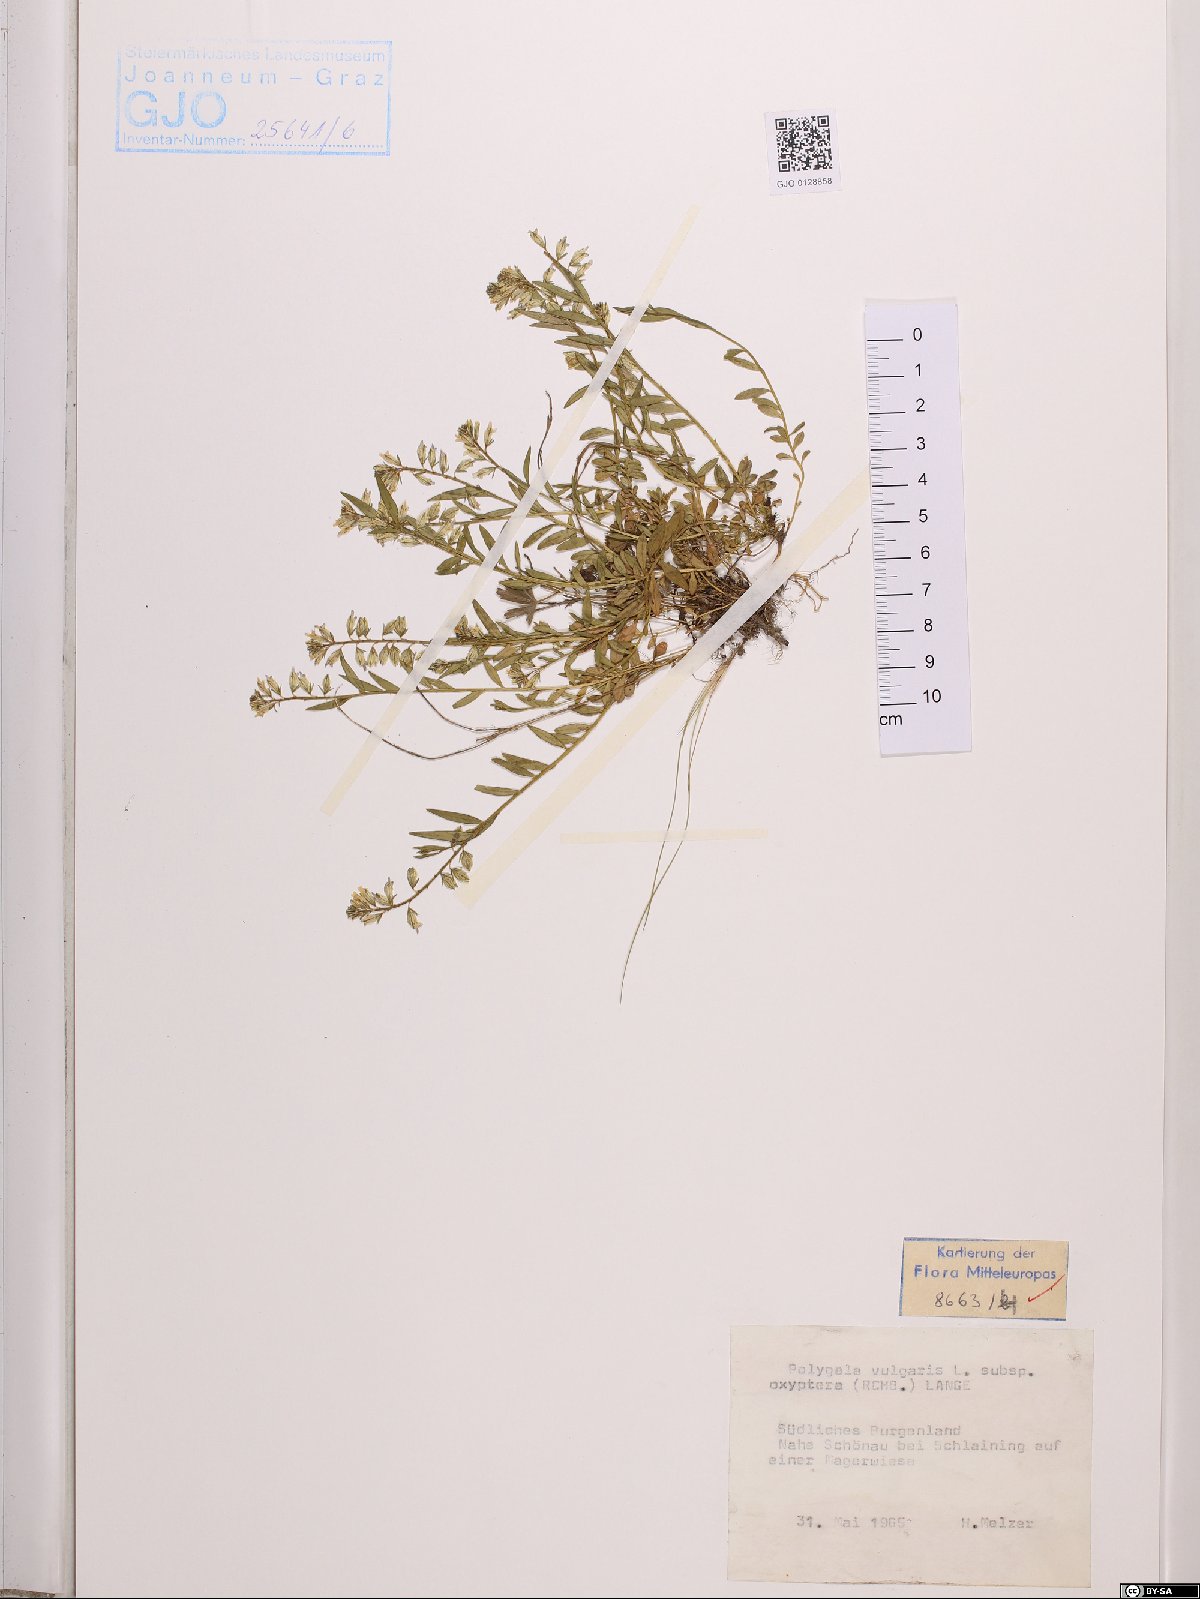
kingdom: Plantae
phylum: Tracheophyta
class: Magnoliopsida
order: Fabales
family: Polygalaceae
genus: Polygala
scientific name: Polygala vulgaris
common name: Common milkwort
